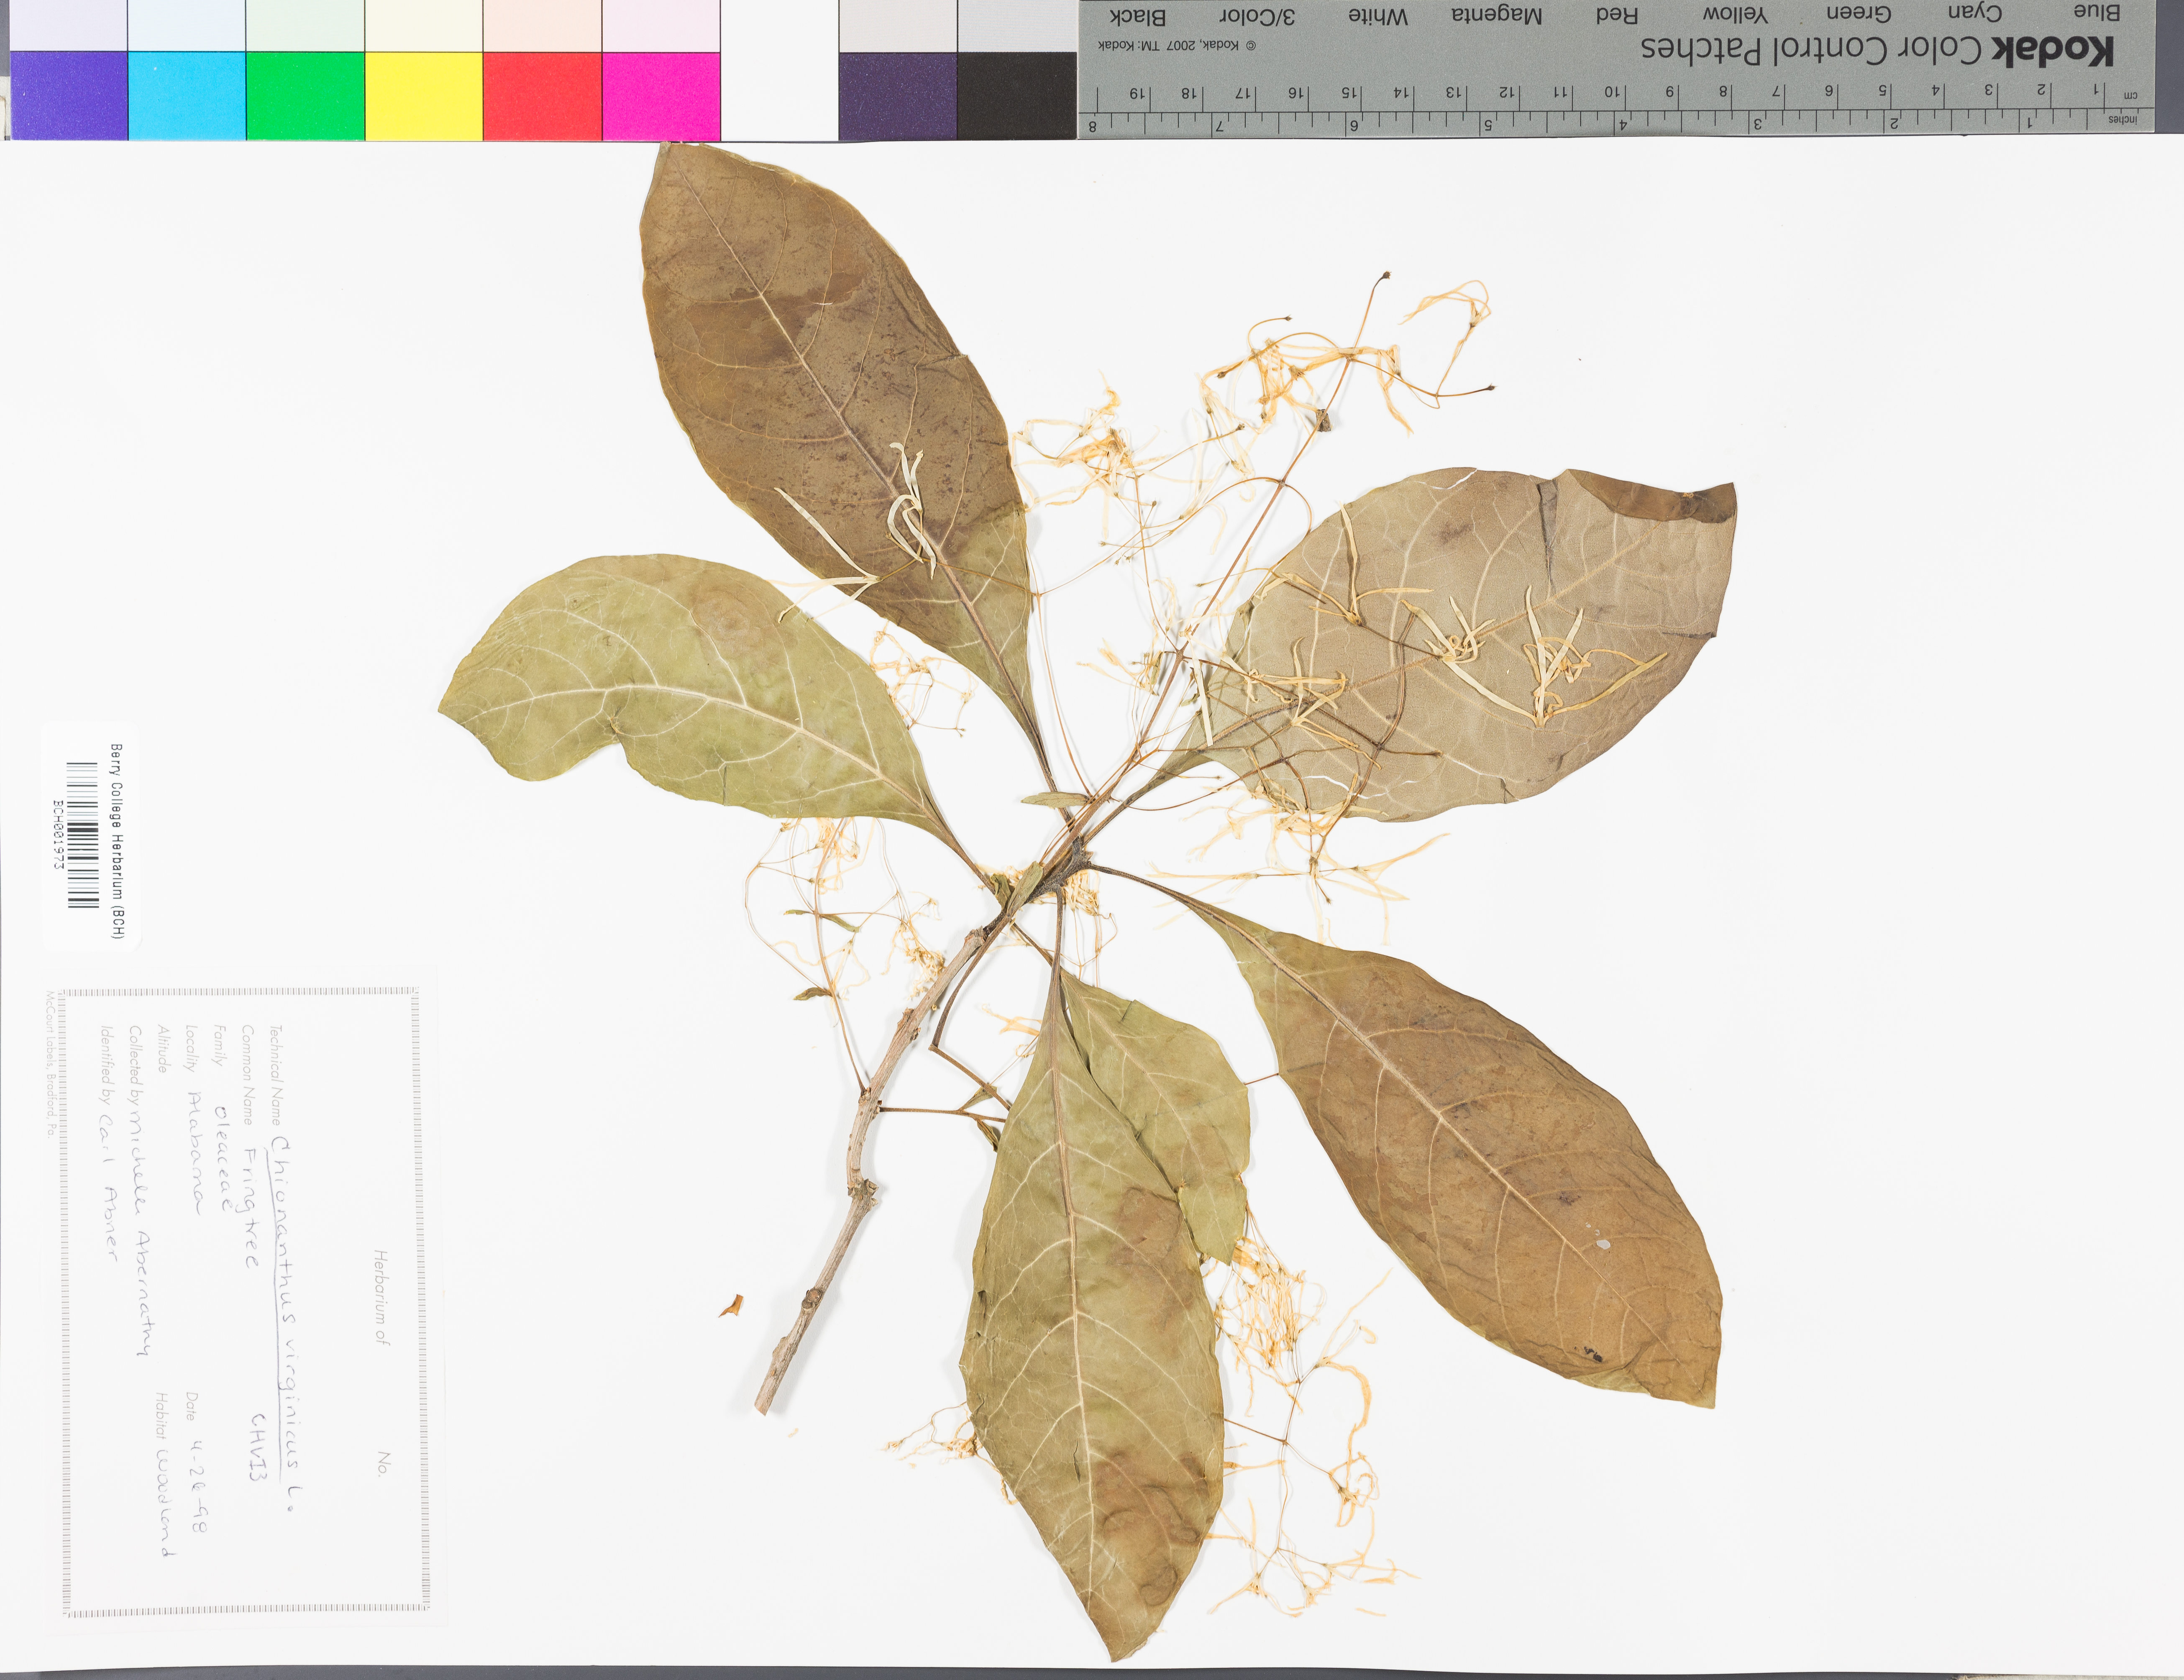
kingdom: Plantae
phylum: Tracheophyta
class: Magnoliopsida
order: Lamiales
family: Oleaceae
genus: Chionanthus
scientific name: Chionanthus virginicus
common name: American fringetree
